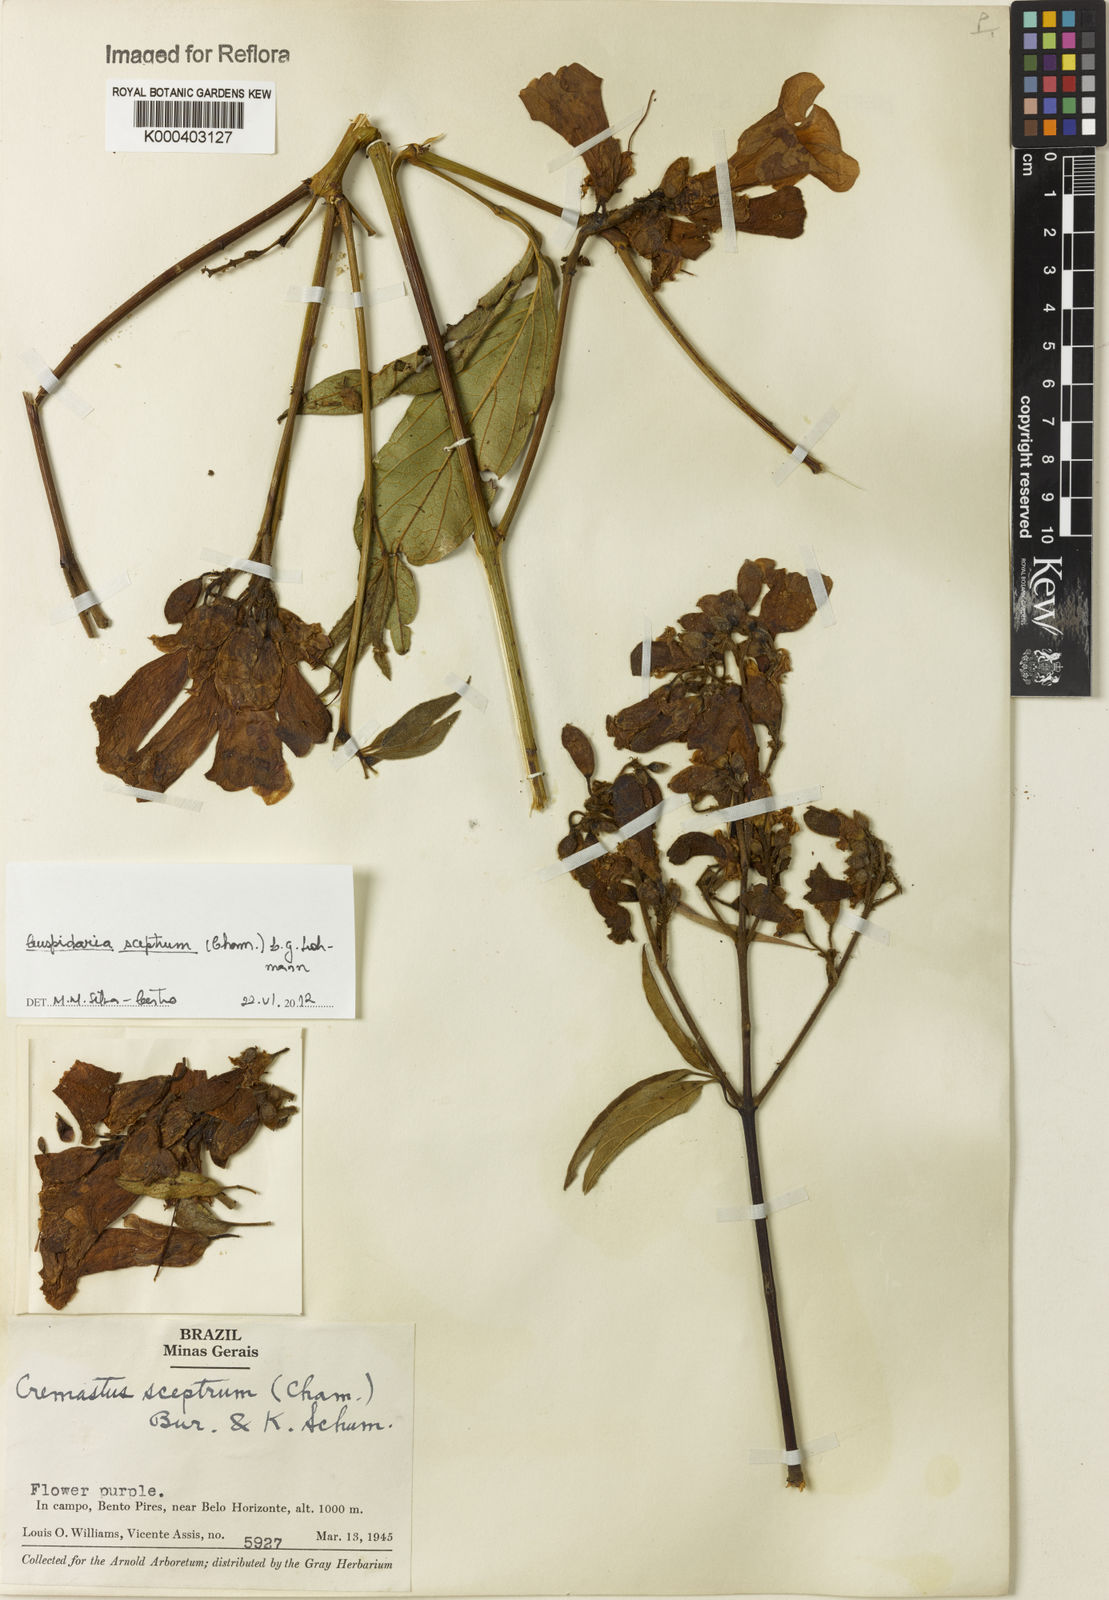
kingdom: Plantae
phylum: Tracheophyta
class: Magnoliopsida
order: Lamiales
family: Bignoniaceae
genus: Cuspidaria
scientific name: Cuspidaria sceptrum
